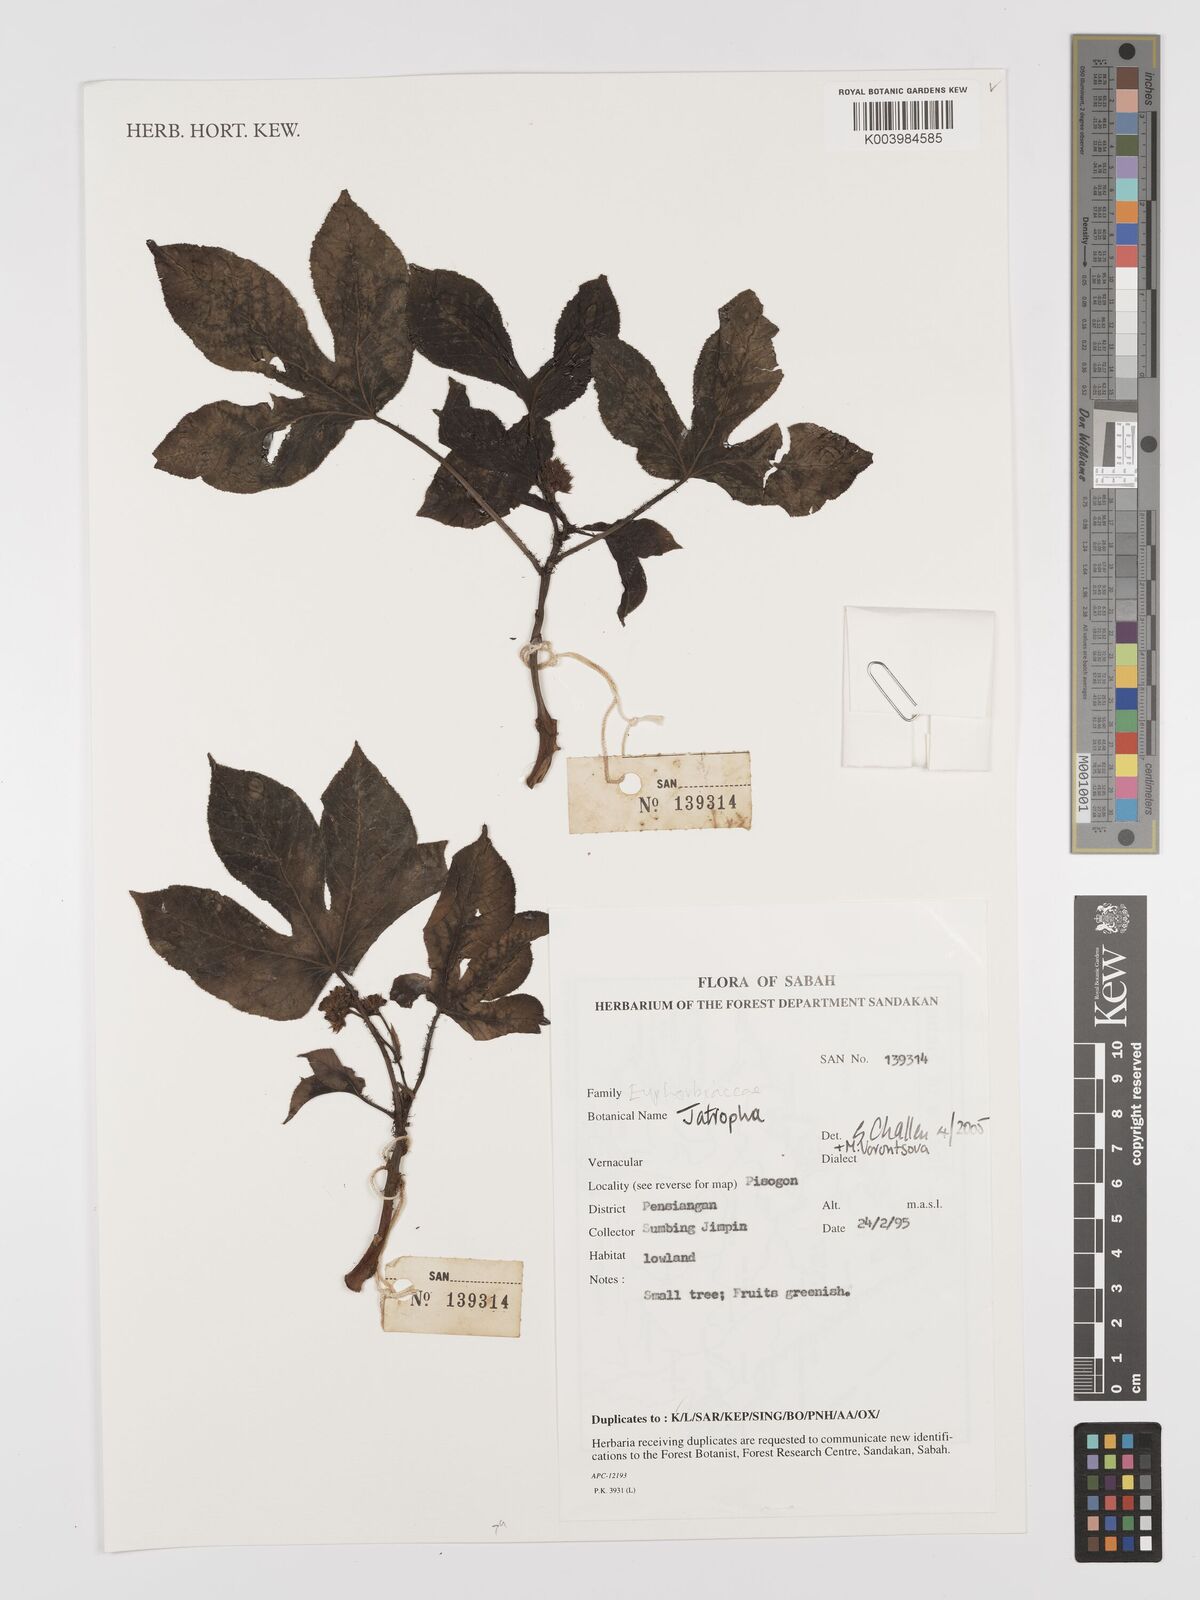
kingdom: Plantae
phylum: Tracheophyta
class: Magnoliopsida
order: Malpighiales
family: Euphorbiaceae
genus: Jatropha
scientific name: Jatropha
